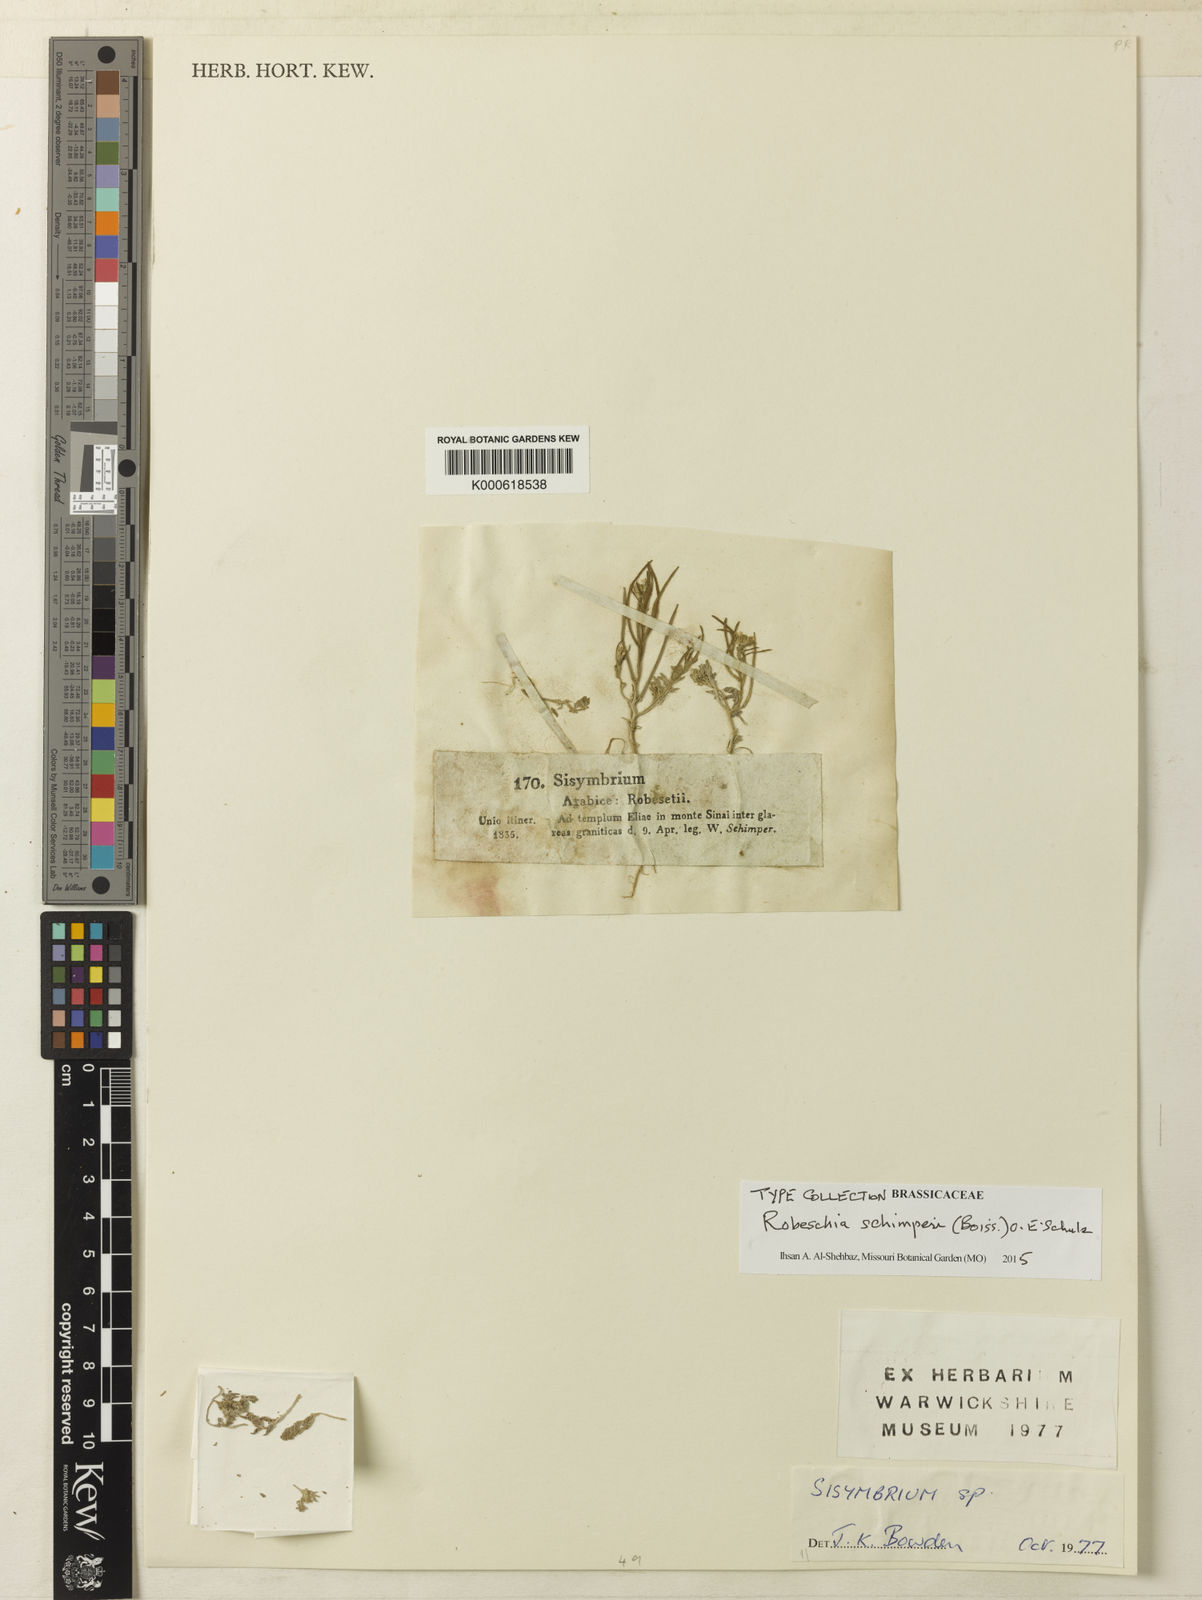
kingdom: Plantae
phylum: Tracheophyta
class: Magnoliopsida
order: Brassicales
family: Brassicaceae
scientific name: Brassicaceae
